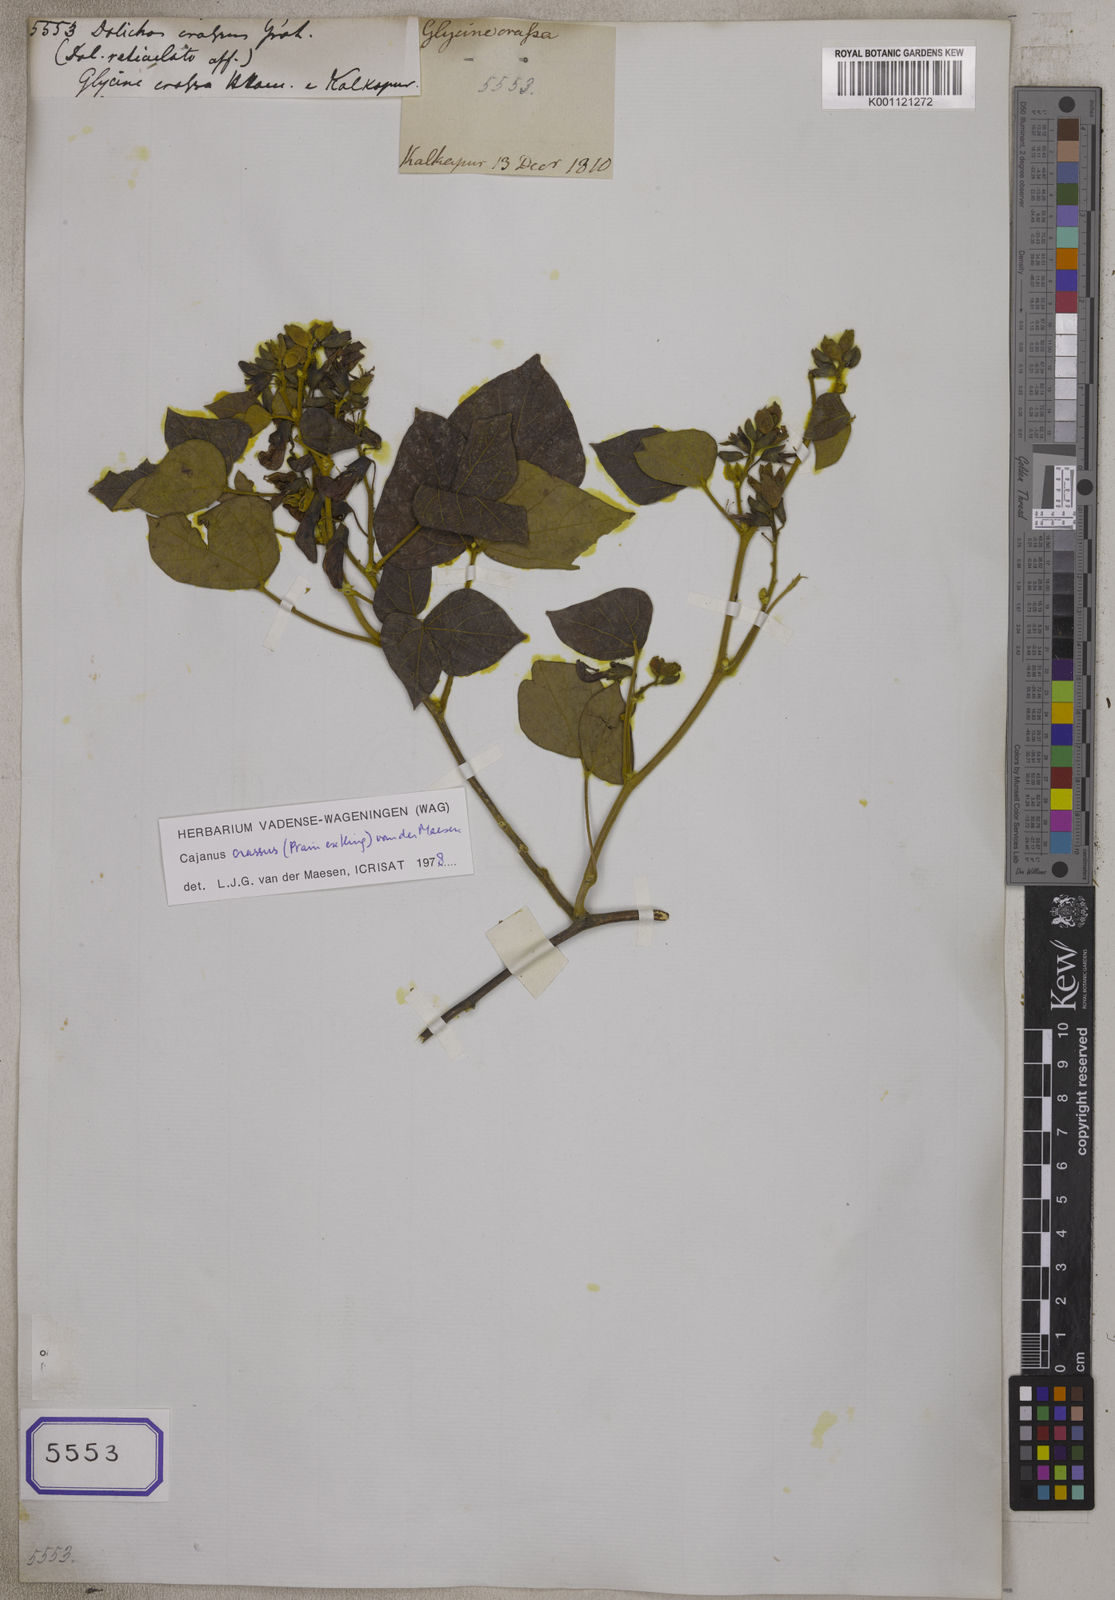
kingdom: Plantae
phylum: Tracheophyta
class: Magnoliopsida
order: Fabales
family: Fabaceae
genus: Cajanus
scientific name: Cajanus mollis
